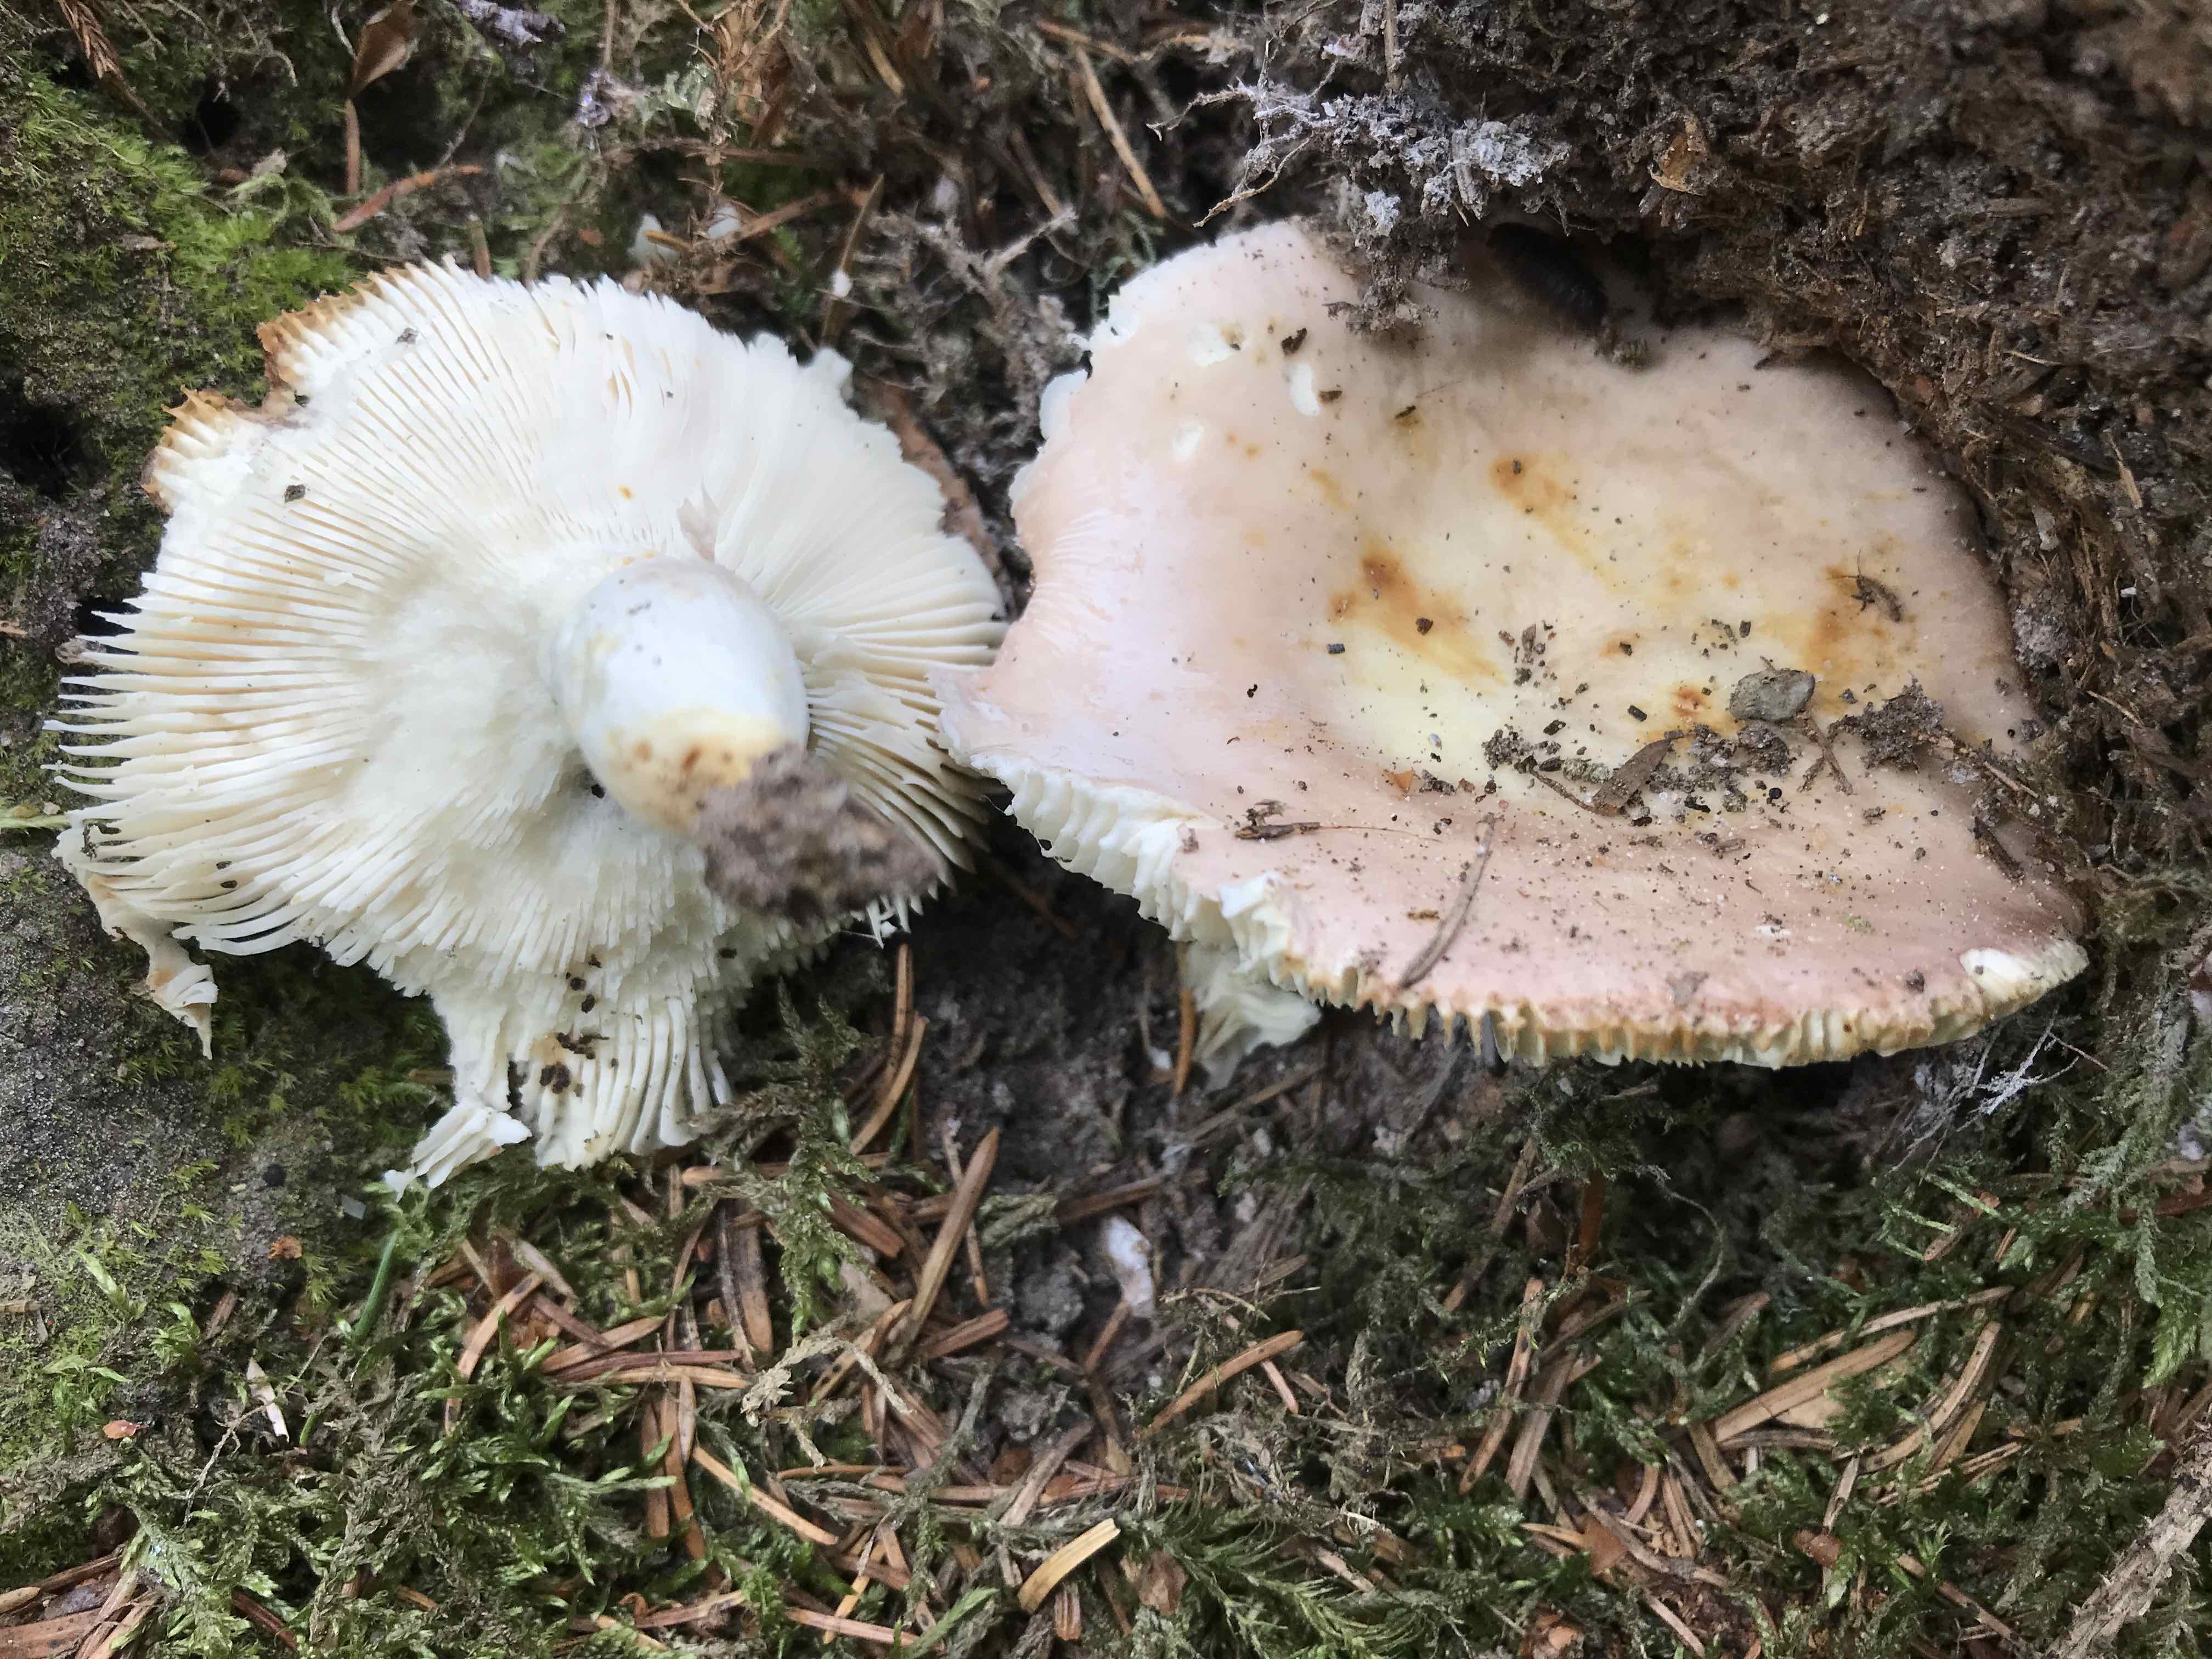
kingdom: Fungi
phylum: Basidiomycota
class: Agaricomycetes
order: Russulales
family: Russulaceae
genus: Russula
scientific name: Russula vesca
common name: spiselig skørhat
